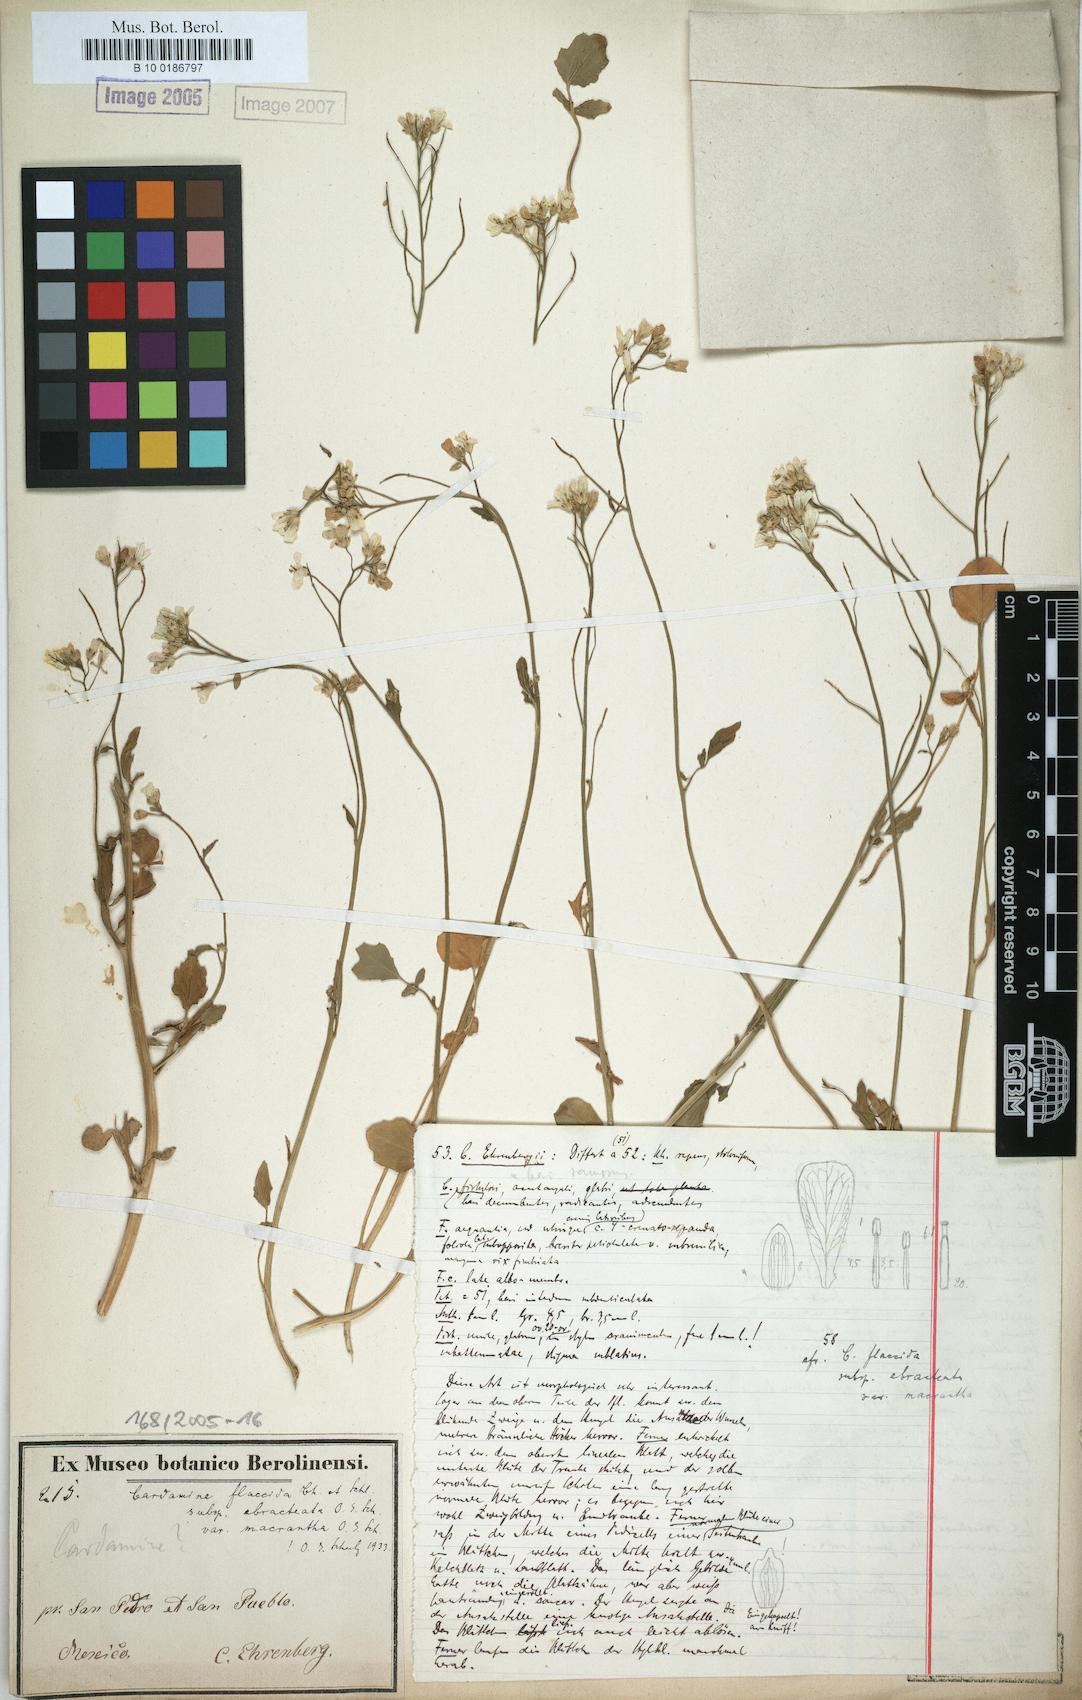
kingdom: Plantae
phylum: Tracheophyta
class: Magnoliopsida
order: Brassicales
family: Brassicaceae
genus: Cardamine
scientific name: Cardamine bonariensis
